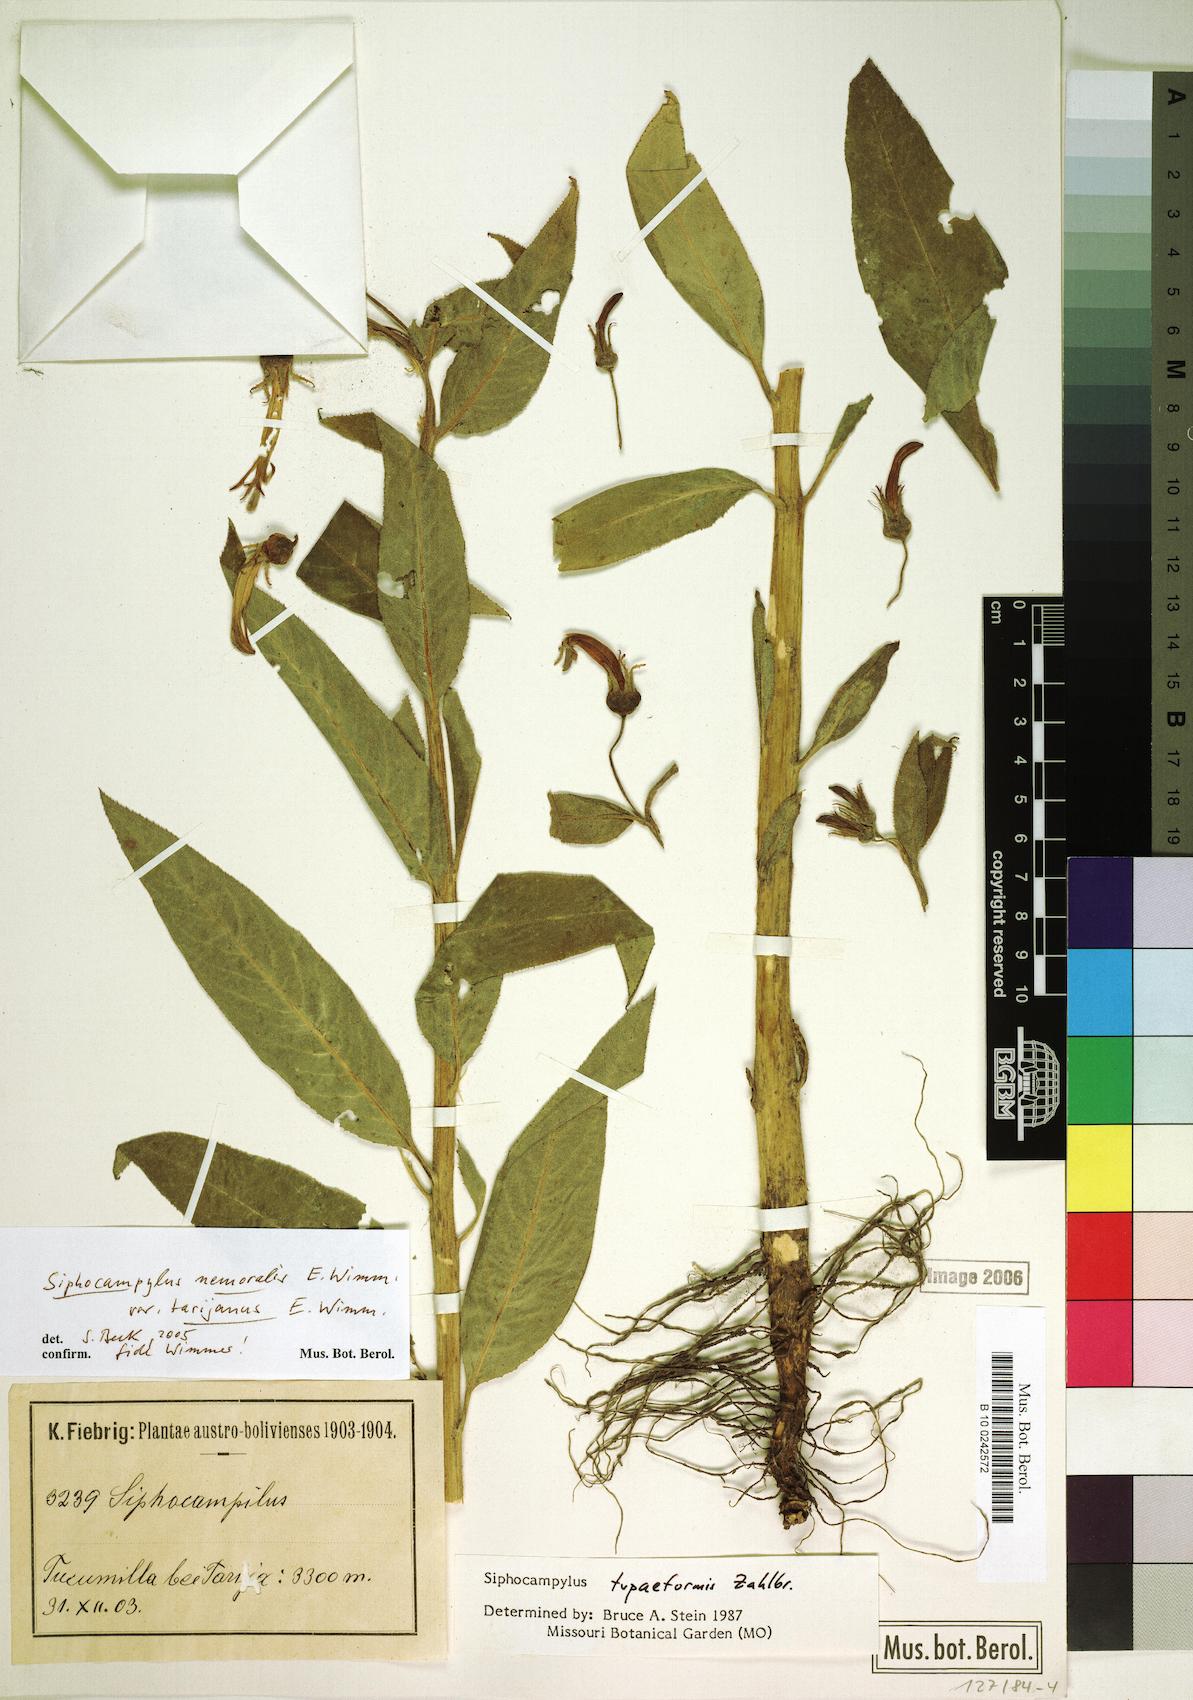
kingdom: Plantae
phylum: Tracheophyta
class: Magnoliopsida
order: Asterales
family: Campanulaceae
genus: Siphocampylus
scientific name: Siphocampylus nemoralis
